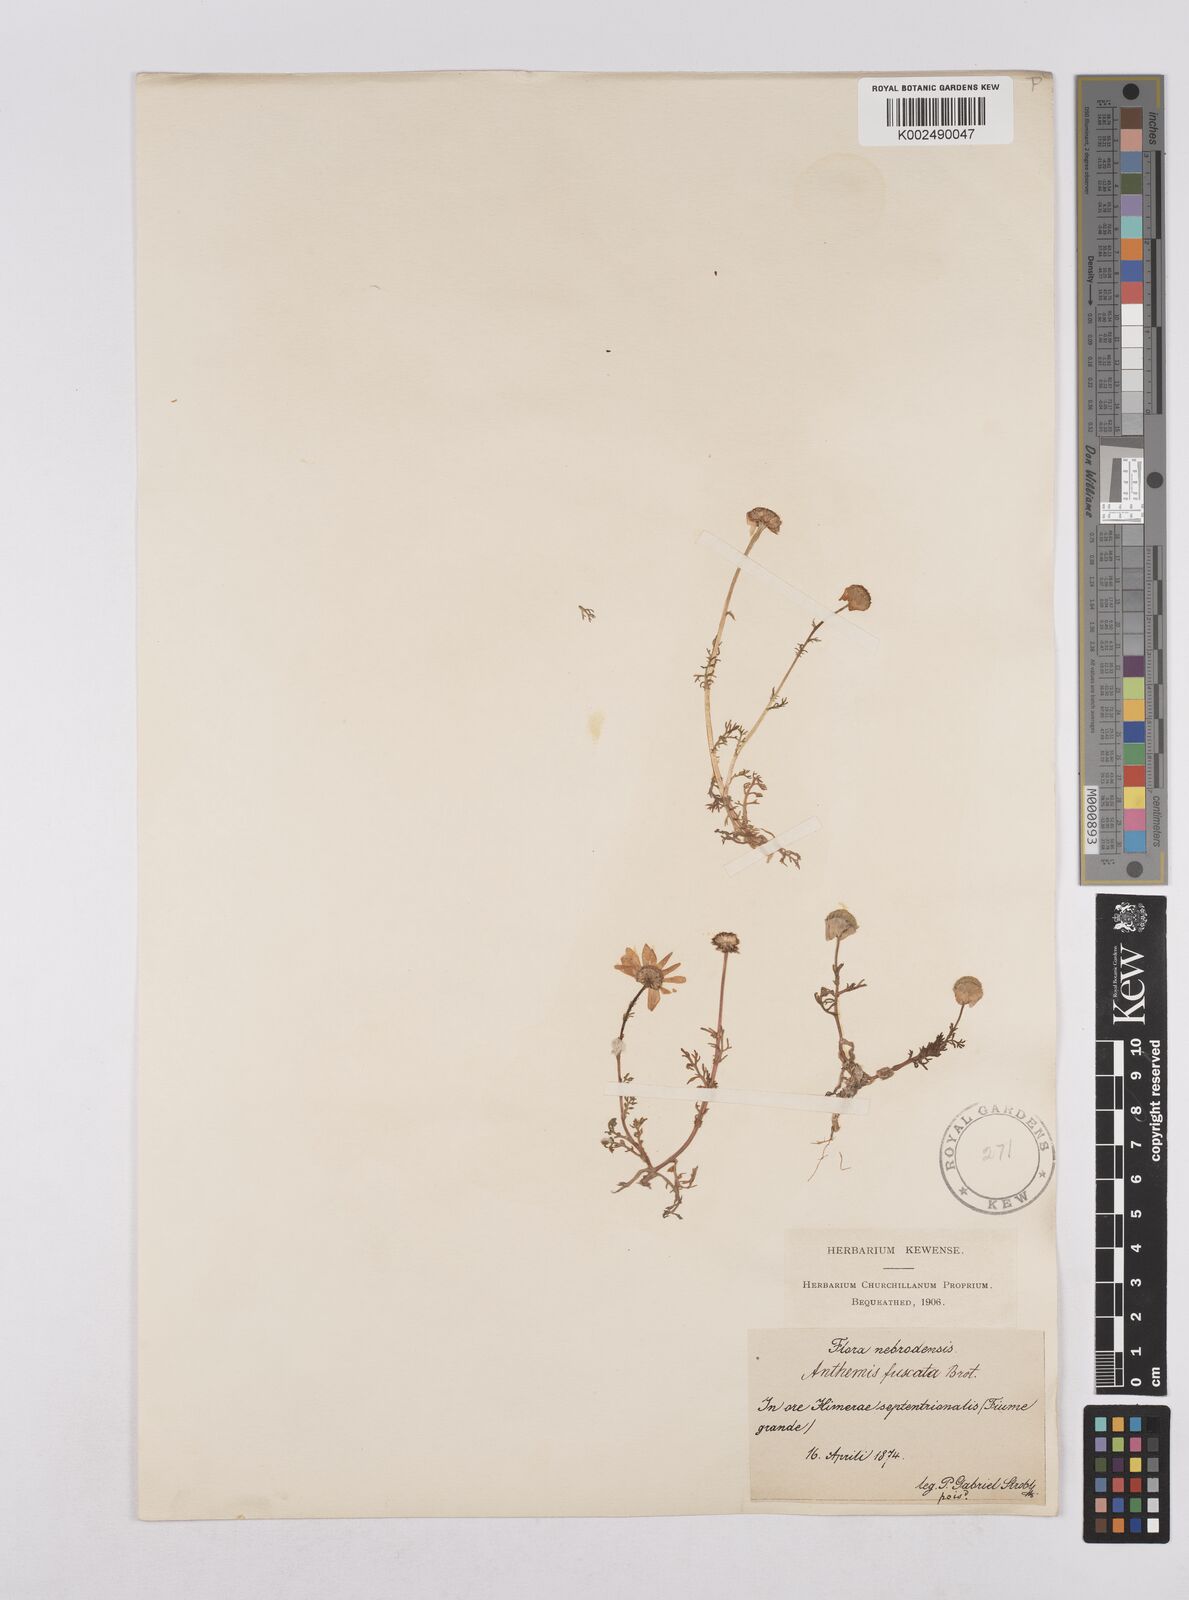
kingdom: Plantae
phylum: Tracheophyta
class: Magnoliopsida
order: Asterales
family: Asteraceae
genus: Chamaemelum
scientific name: Chamaemelum fuscatum
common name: Chamomile
